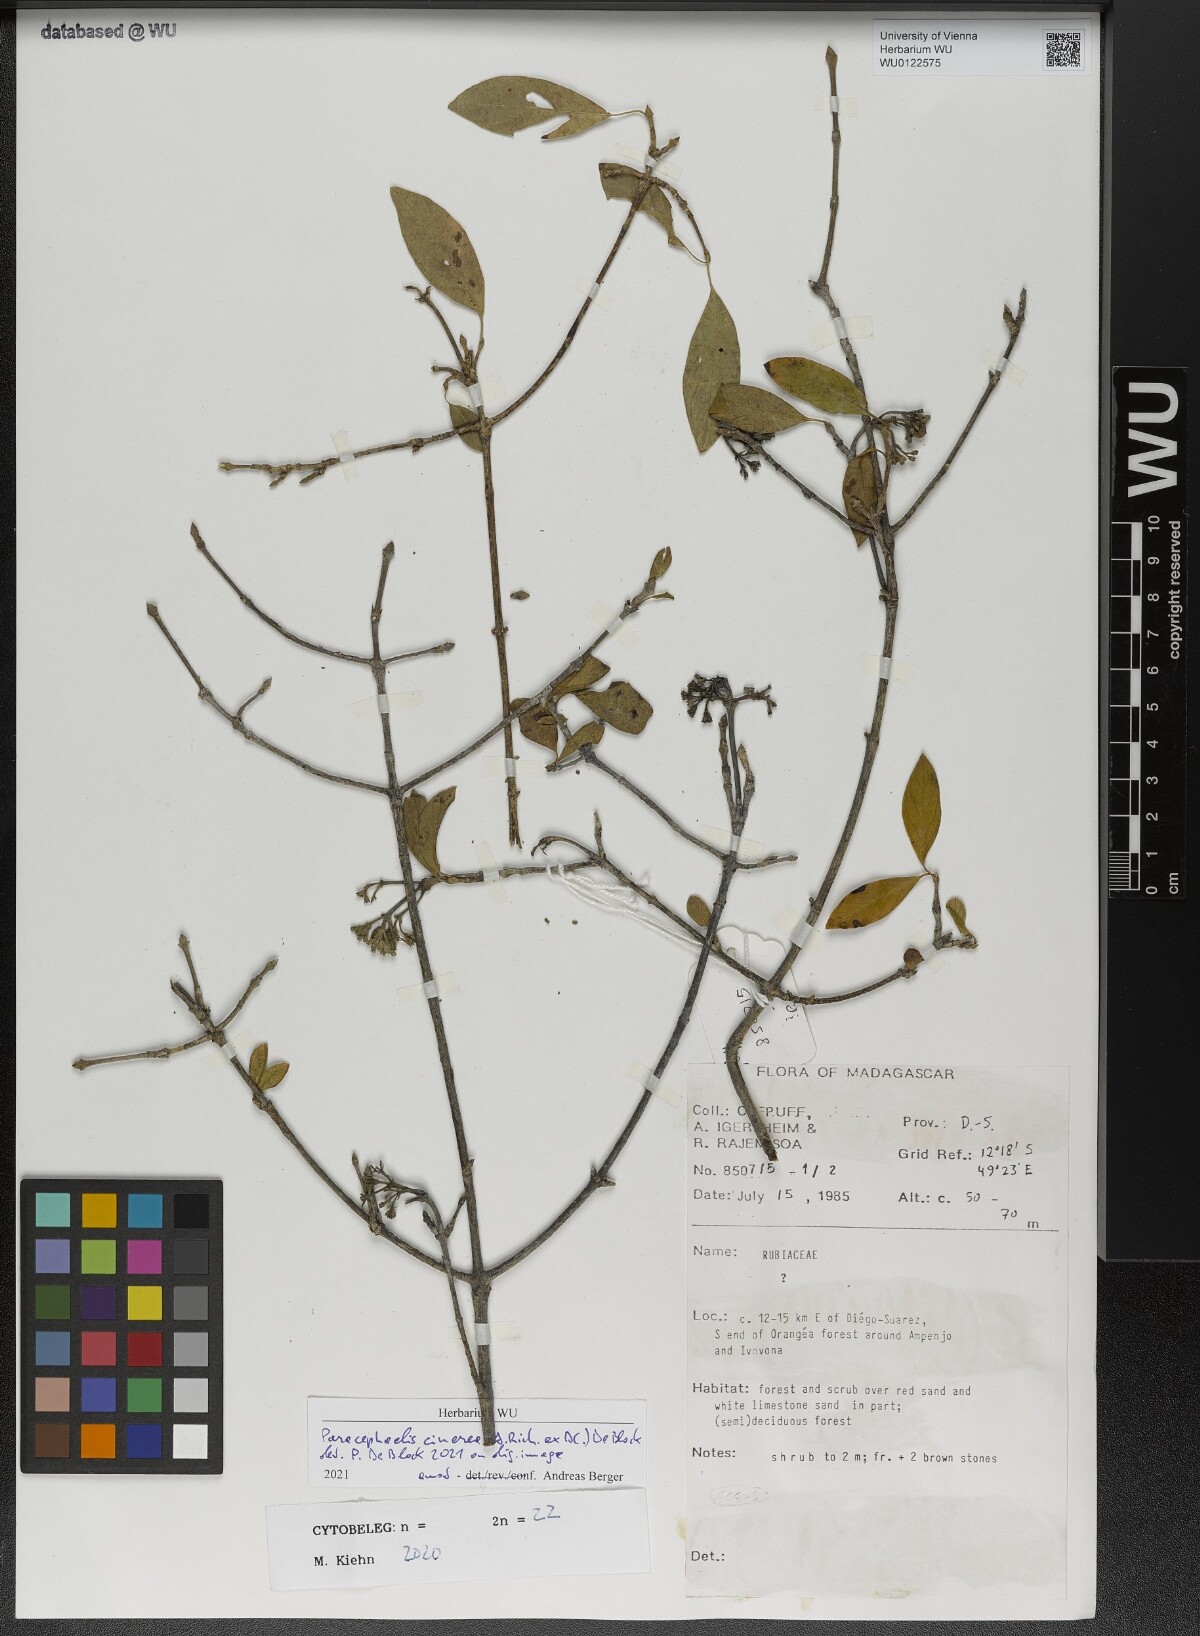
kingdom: Plantae
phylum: Tracheophyta
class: Magnoliopsida
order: Gentianales
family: Rubiaceae
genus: Paracephaelis
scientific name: Paracephaelis cinerea
